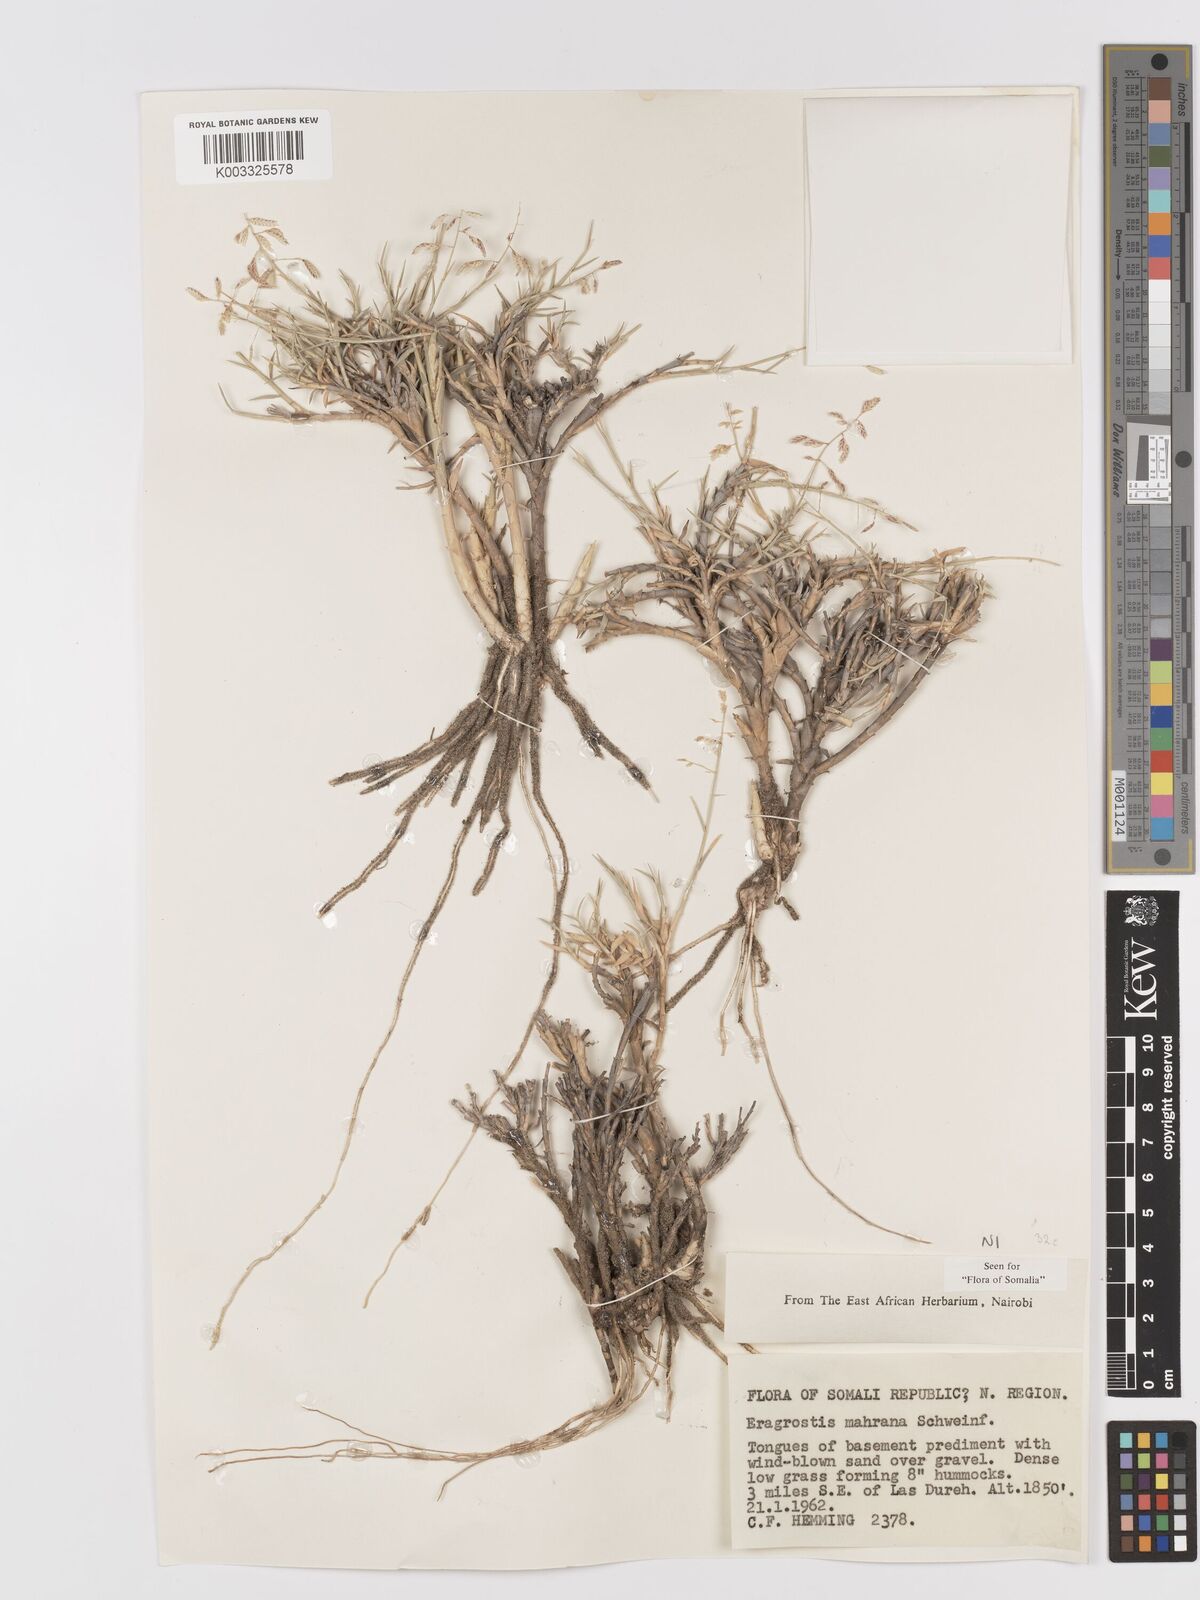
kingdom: Plantae
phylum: Tracheophyta
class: Liliopsida
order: Poales
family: Poaceae
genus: Eragrostis
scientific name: Eragrostis mahrana
